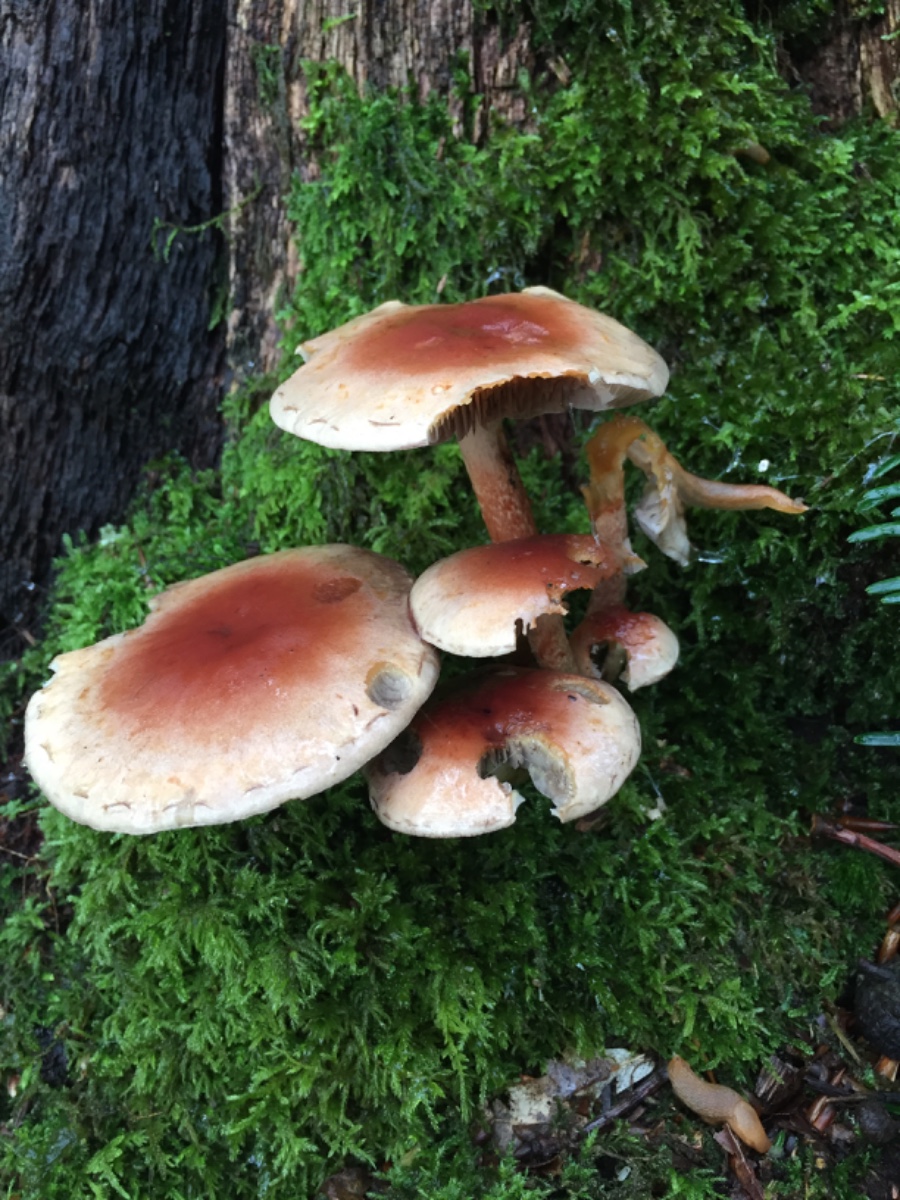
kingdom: Fungi
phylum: Basidiomycota
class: Agaricomycetes
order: Agaricales
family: Strophariaceae
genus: Hypholoma
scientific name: Hypholoma lateritium
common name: teglrød svovlhat
